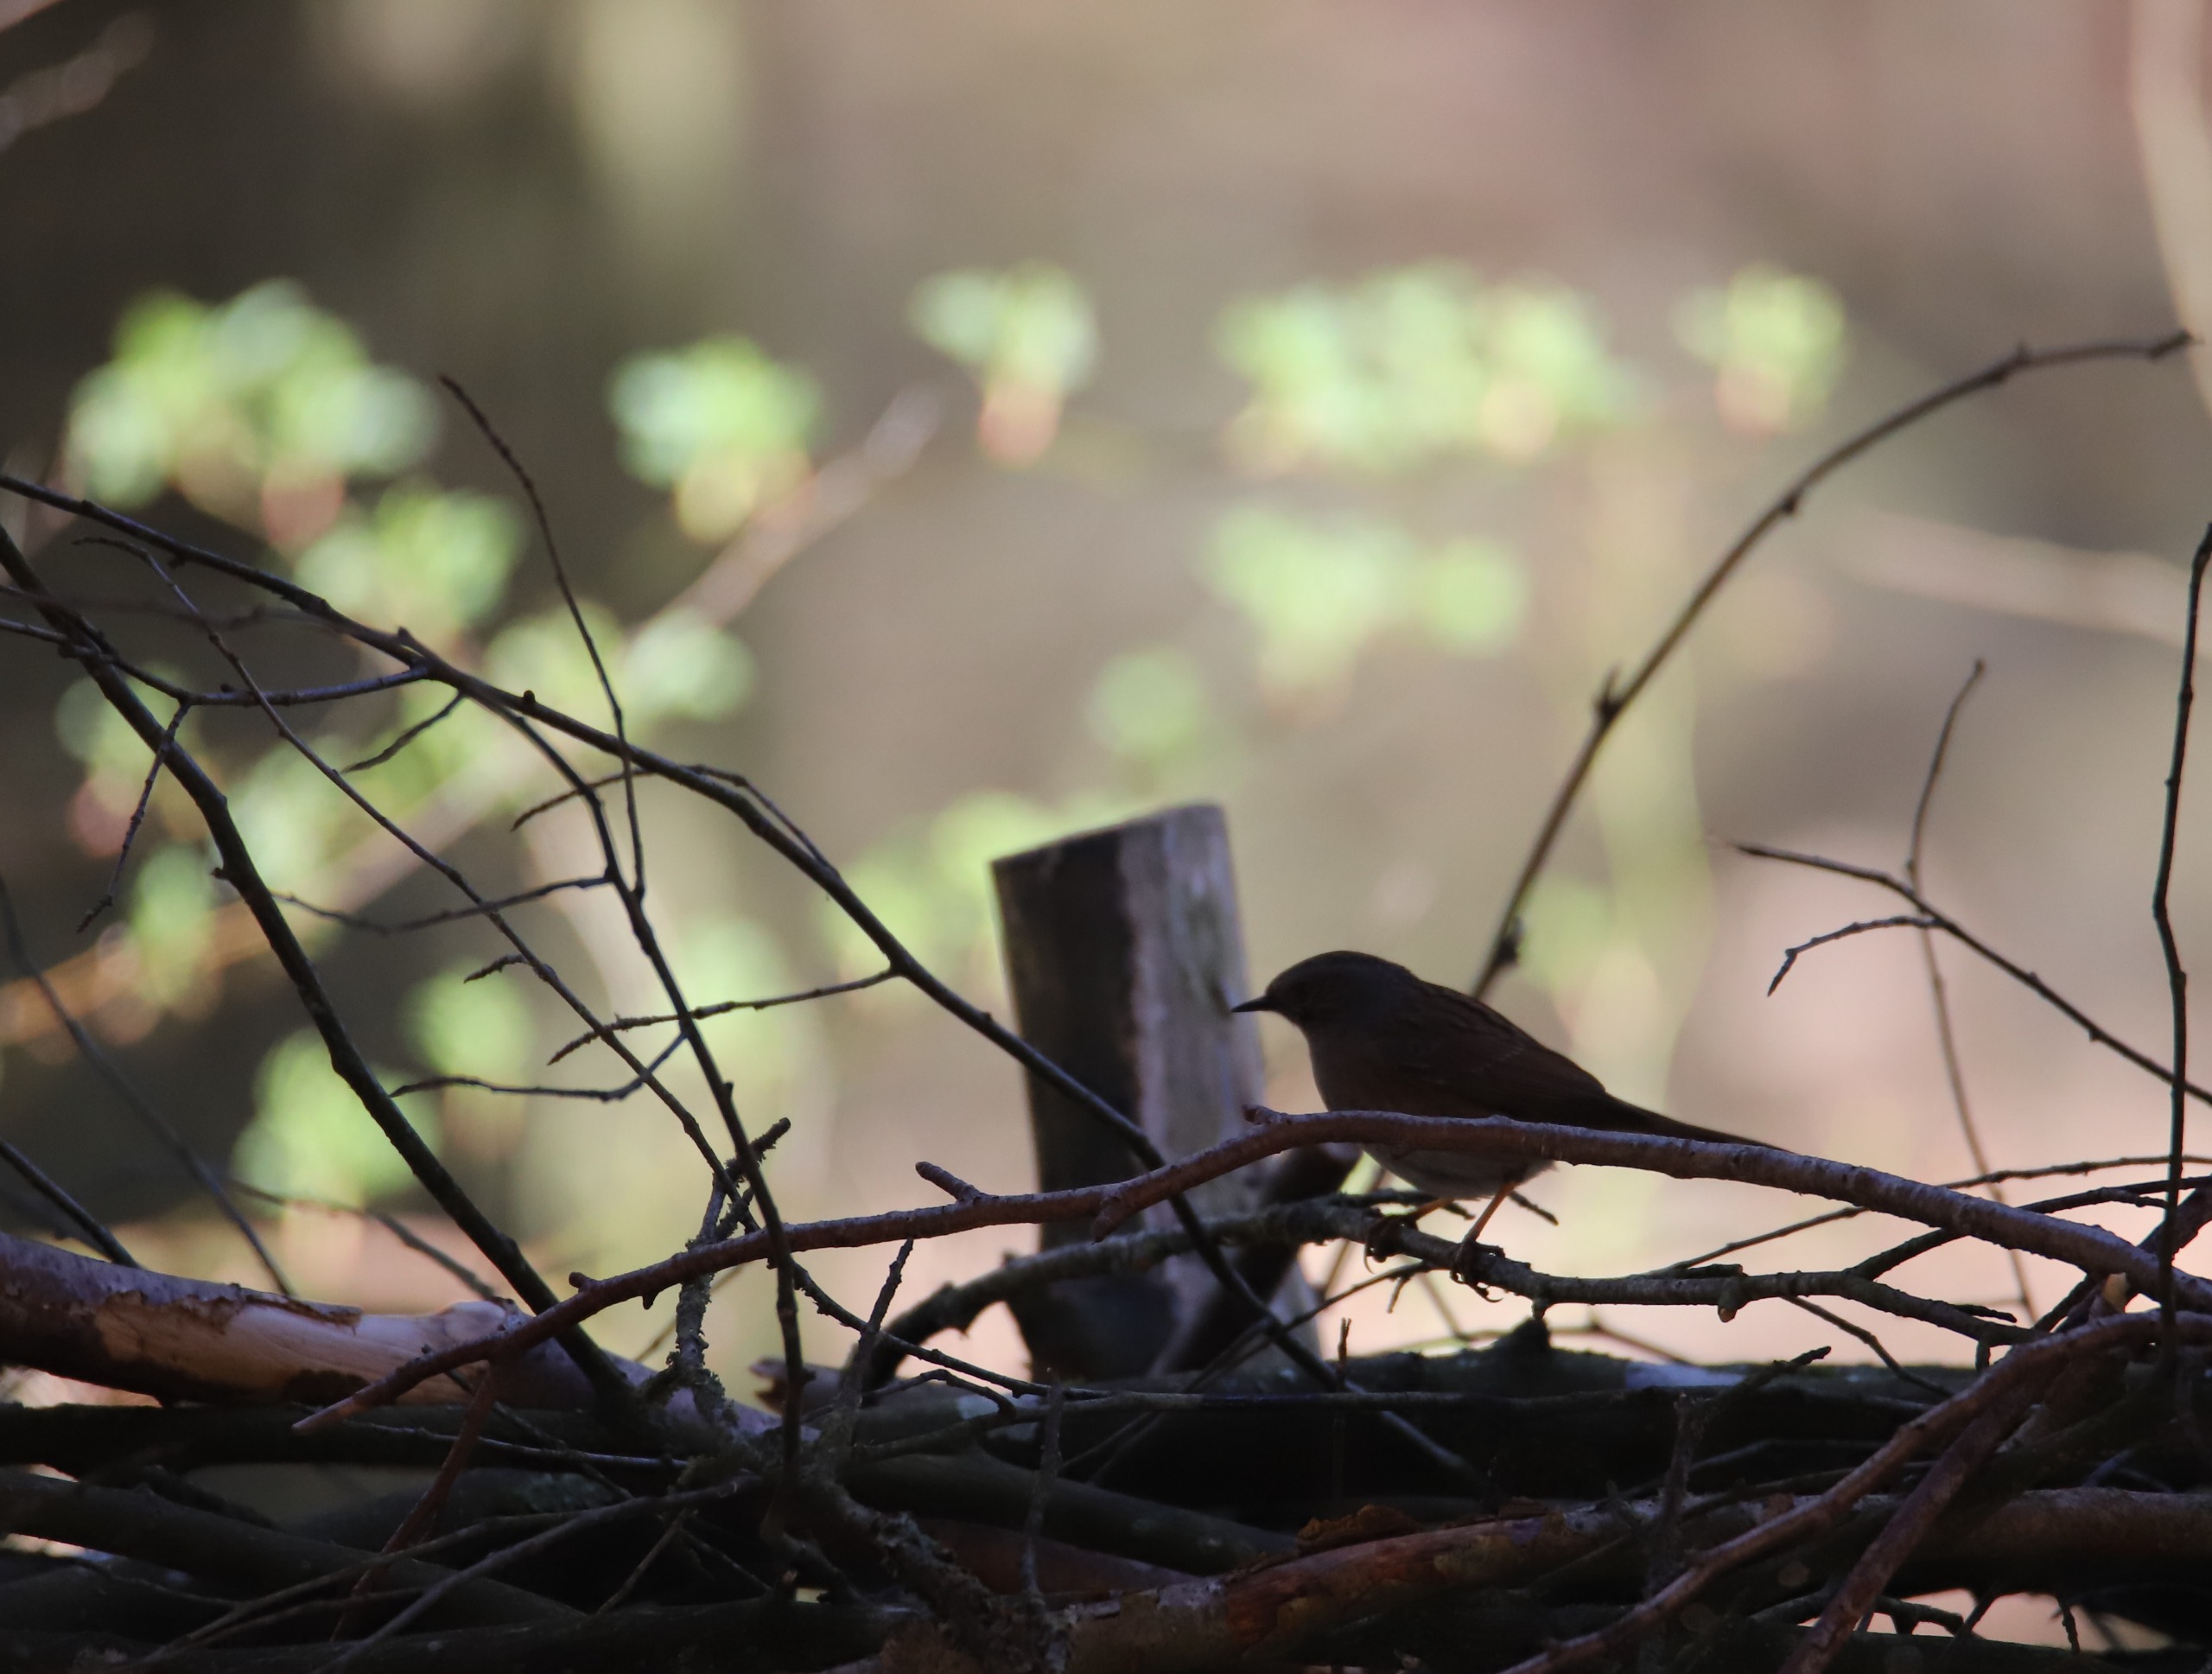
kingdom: Animalia
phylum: Chordata
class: Aves
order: Passeriformes
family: Prunellidae
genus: Prunella
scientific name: Prunella modularis
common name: Jernspurv
